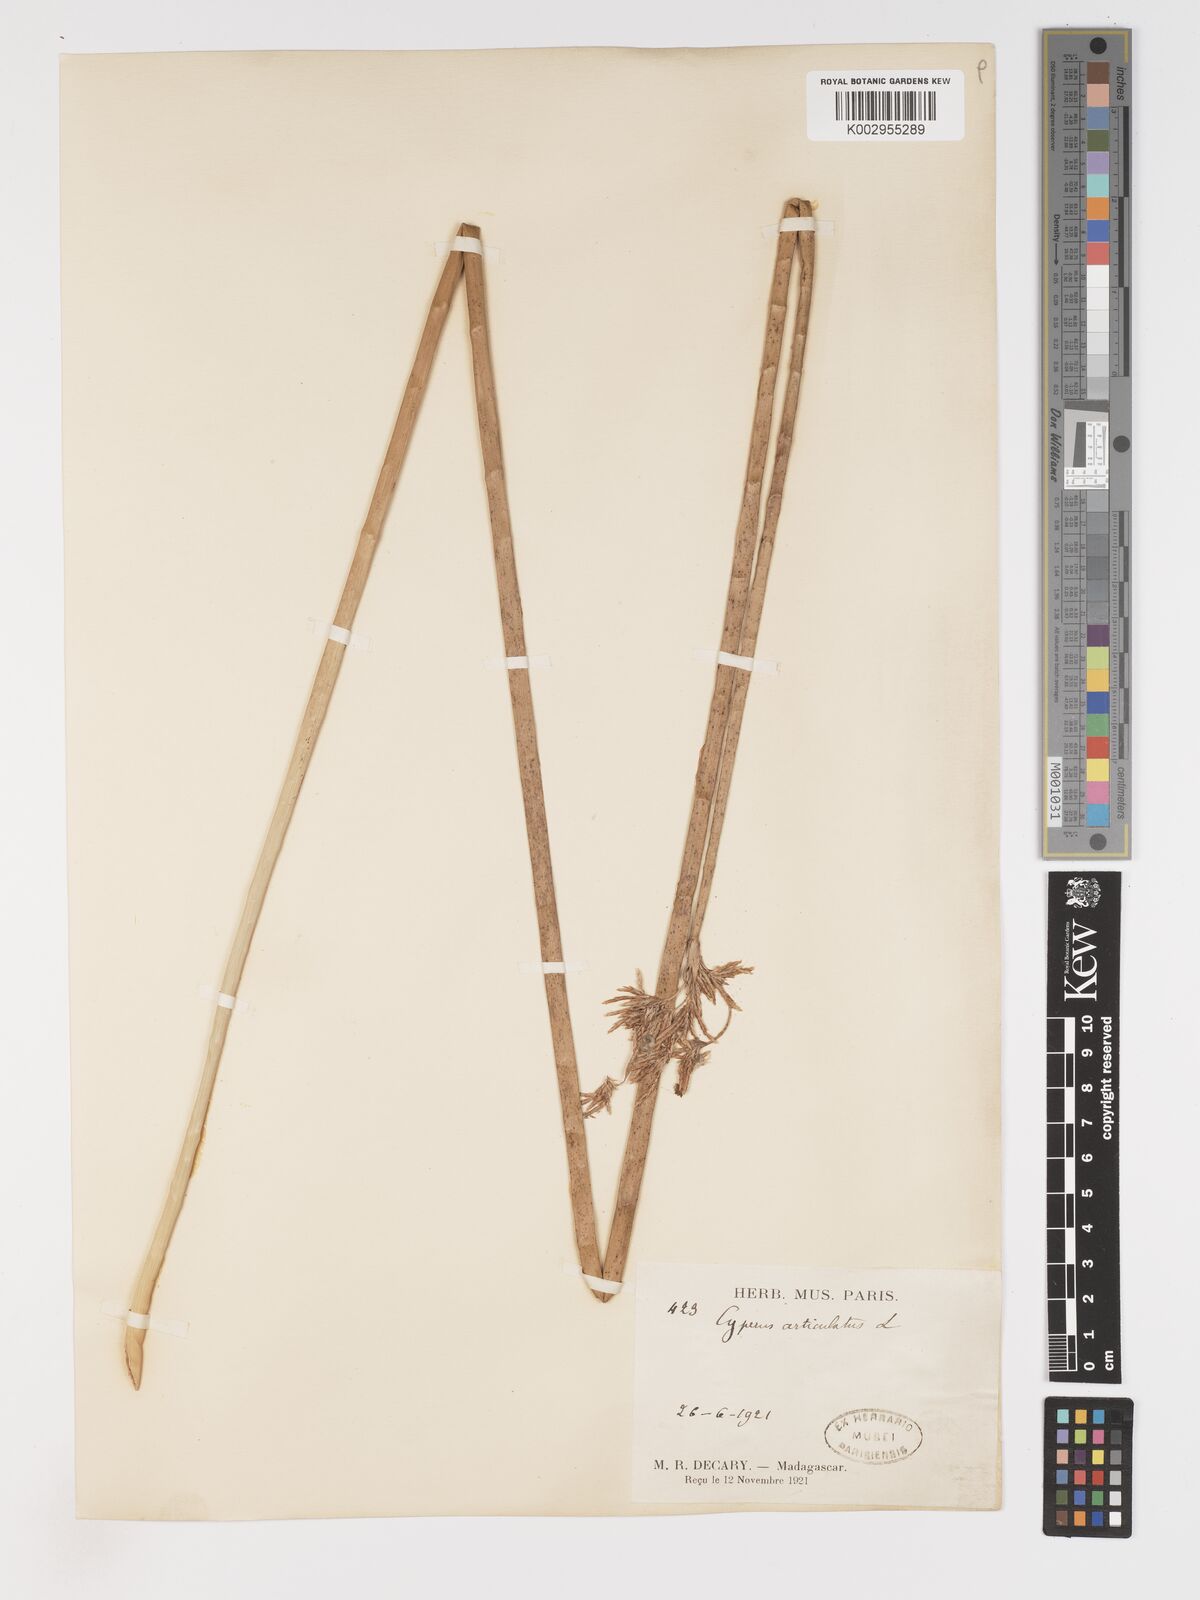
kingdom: Plantae
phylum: Tracheophyta
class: Liliopsida
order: Poales
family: Cyperaceae
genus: Cyperus
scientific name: Cyperus articulatus
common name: Jointed flatsedge
